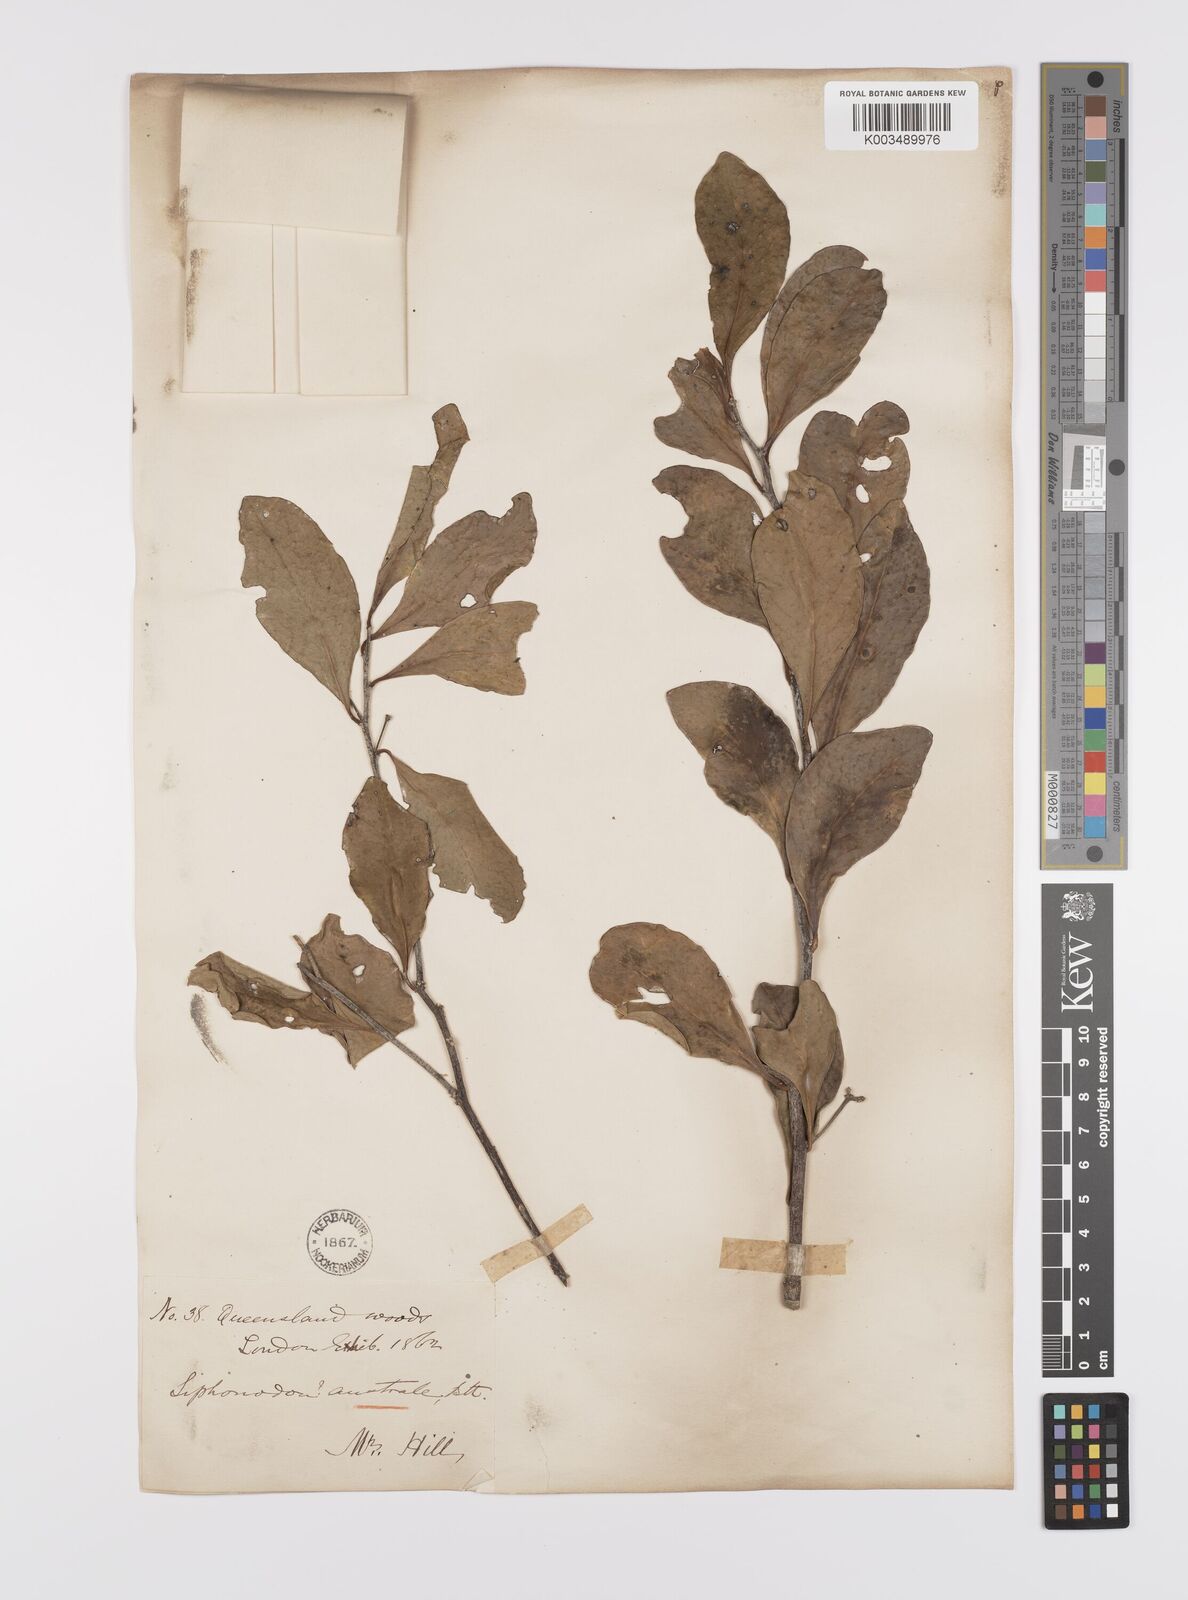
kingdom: Plantae
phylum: Tracheophyta
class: Magnoliopsida
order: Celastrales
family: Celastraceae
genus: Siphonodon
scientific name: Siphonodon australis
